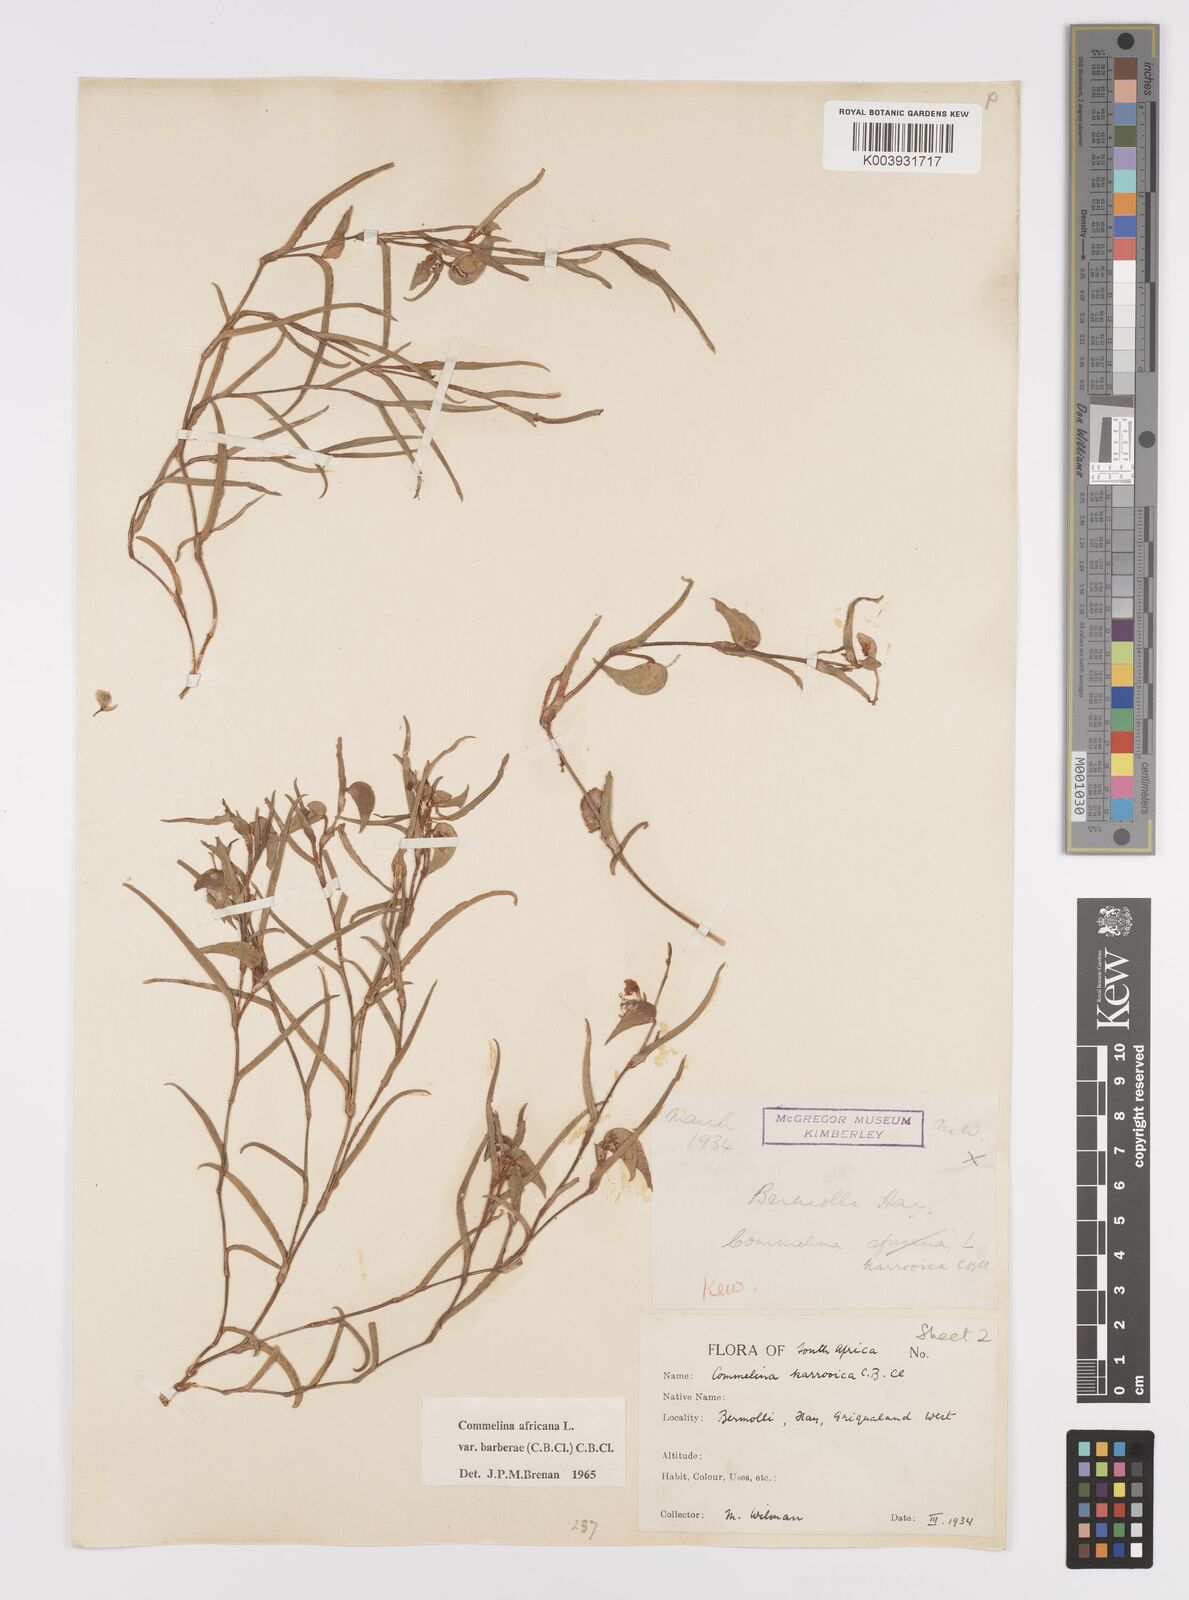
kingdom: Plantae
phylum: Tracheophyta
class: Liliopsida
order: Commelinales
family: Commelinaceae
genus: Commelina
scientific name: Commelina africana
